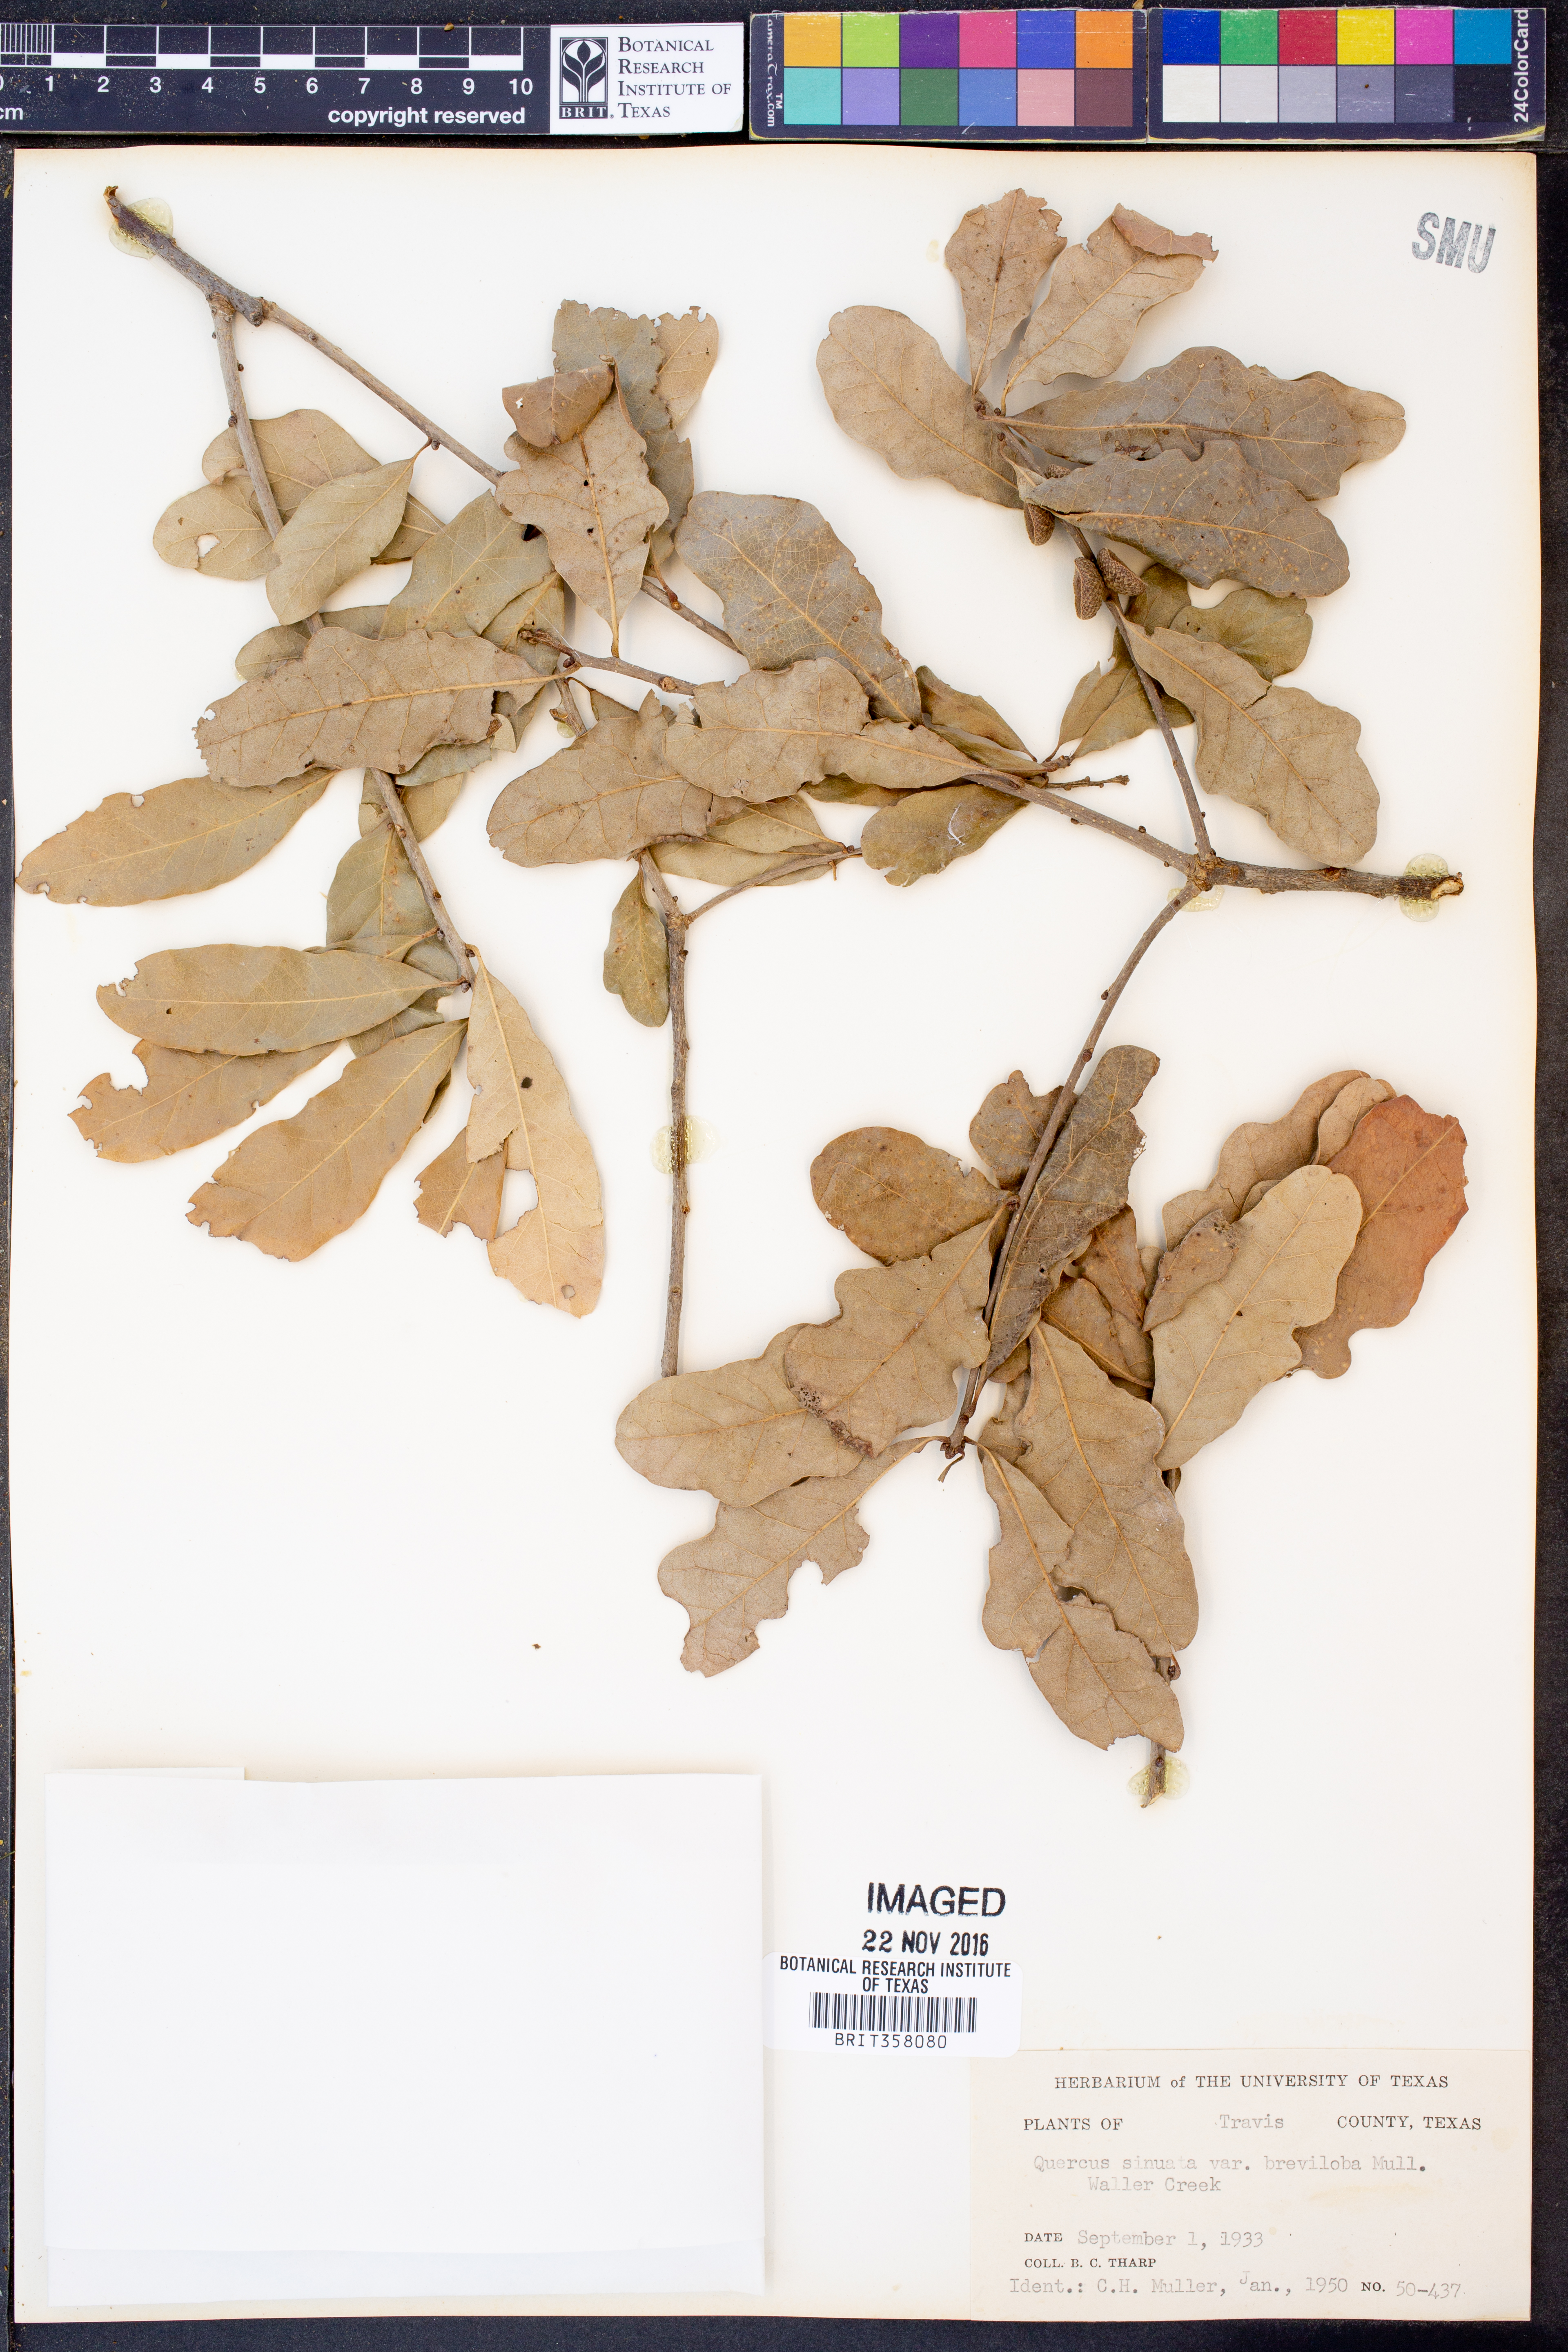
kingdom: Plantae
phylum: Tracheophyta
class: Magnoliopsida
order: Fagales
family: Fagaceae
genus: Quercus
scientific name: Quercus sinuata
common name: Durand oak
